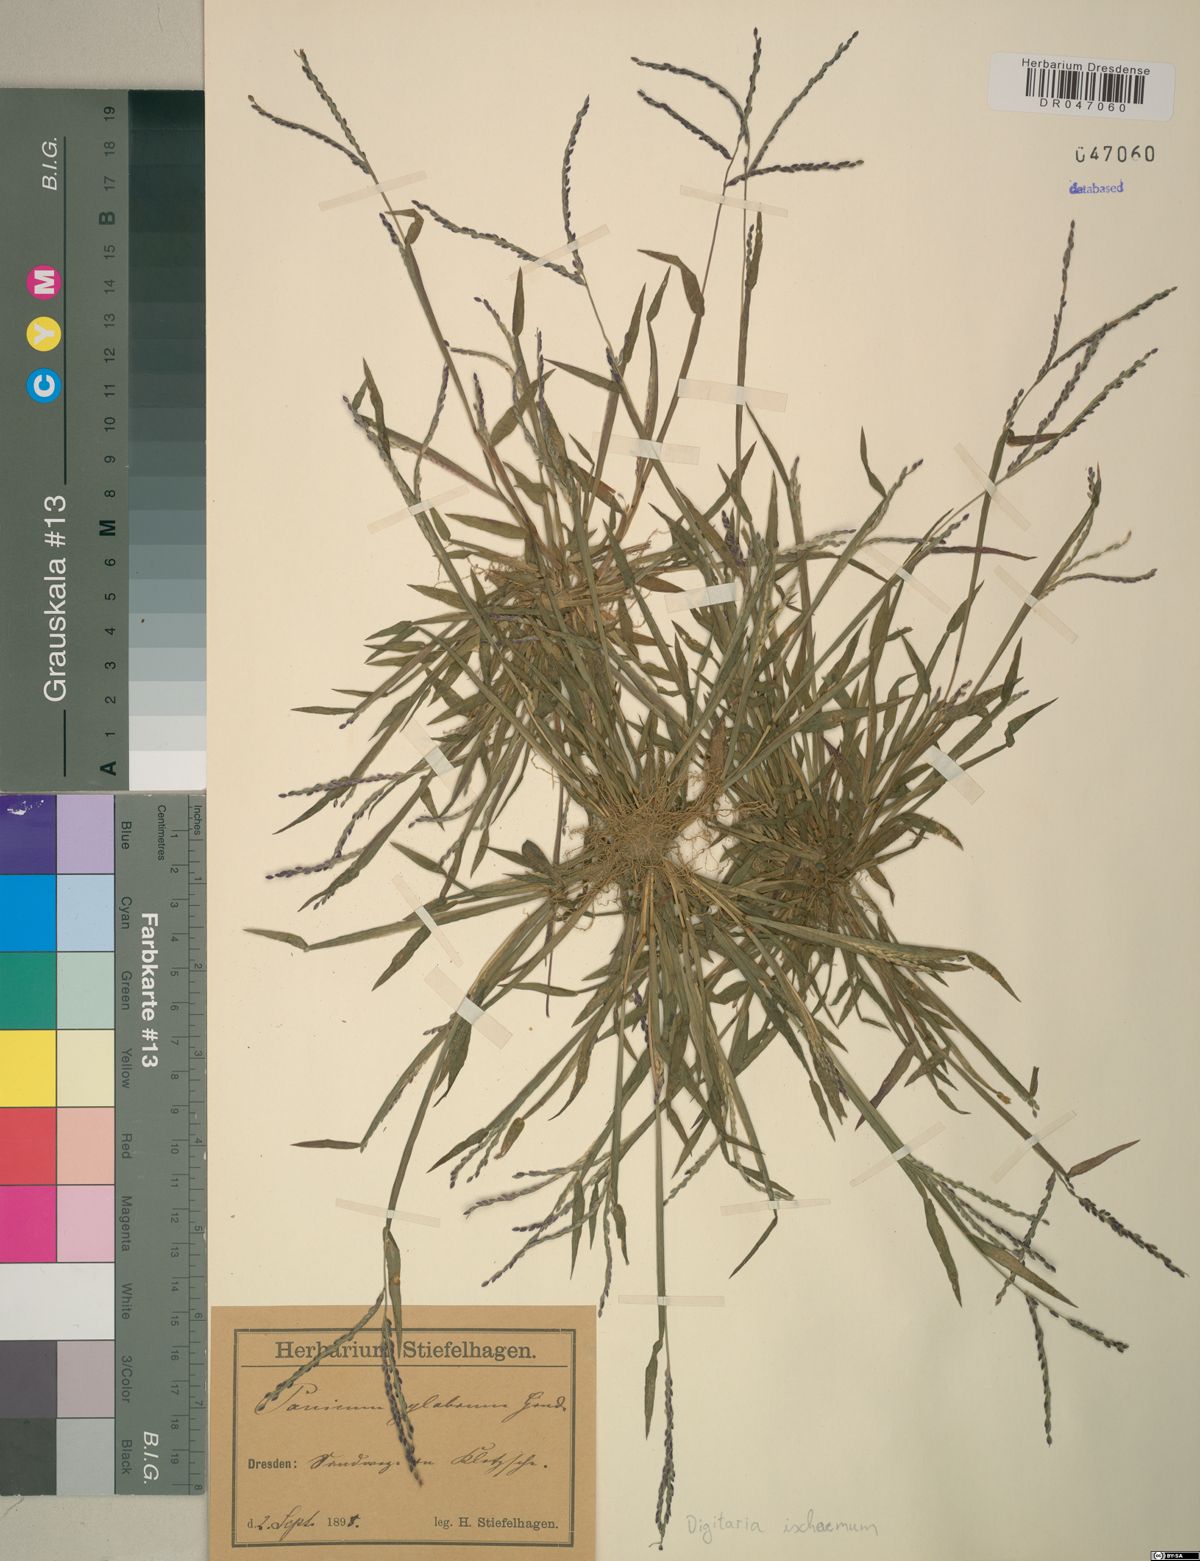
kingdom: Plantae
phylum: Tracheophyta
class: Liliopsida
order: Poales
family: Poaceae
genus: Digitaria
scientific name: Digitaria ischaemum
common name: Smooth crabgrass
